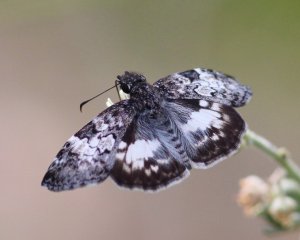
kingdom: Animalia
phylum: Arthropoda
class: Insecta
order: Lepidoptera
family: Hesperiidae
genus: Chiomara
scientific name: Chiomara asychis
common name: White-patched Skipper
